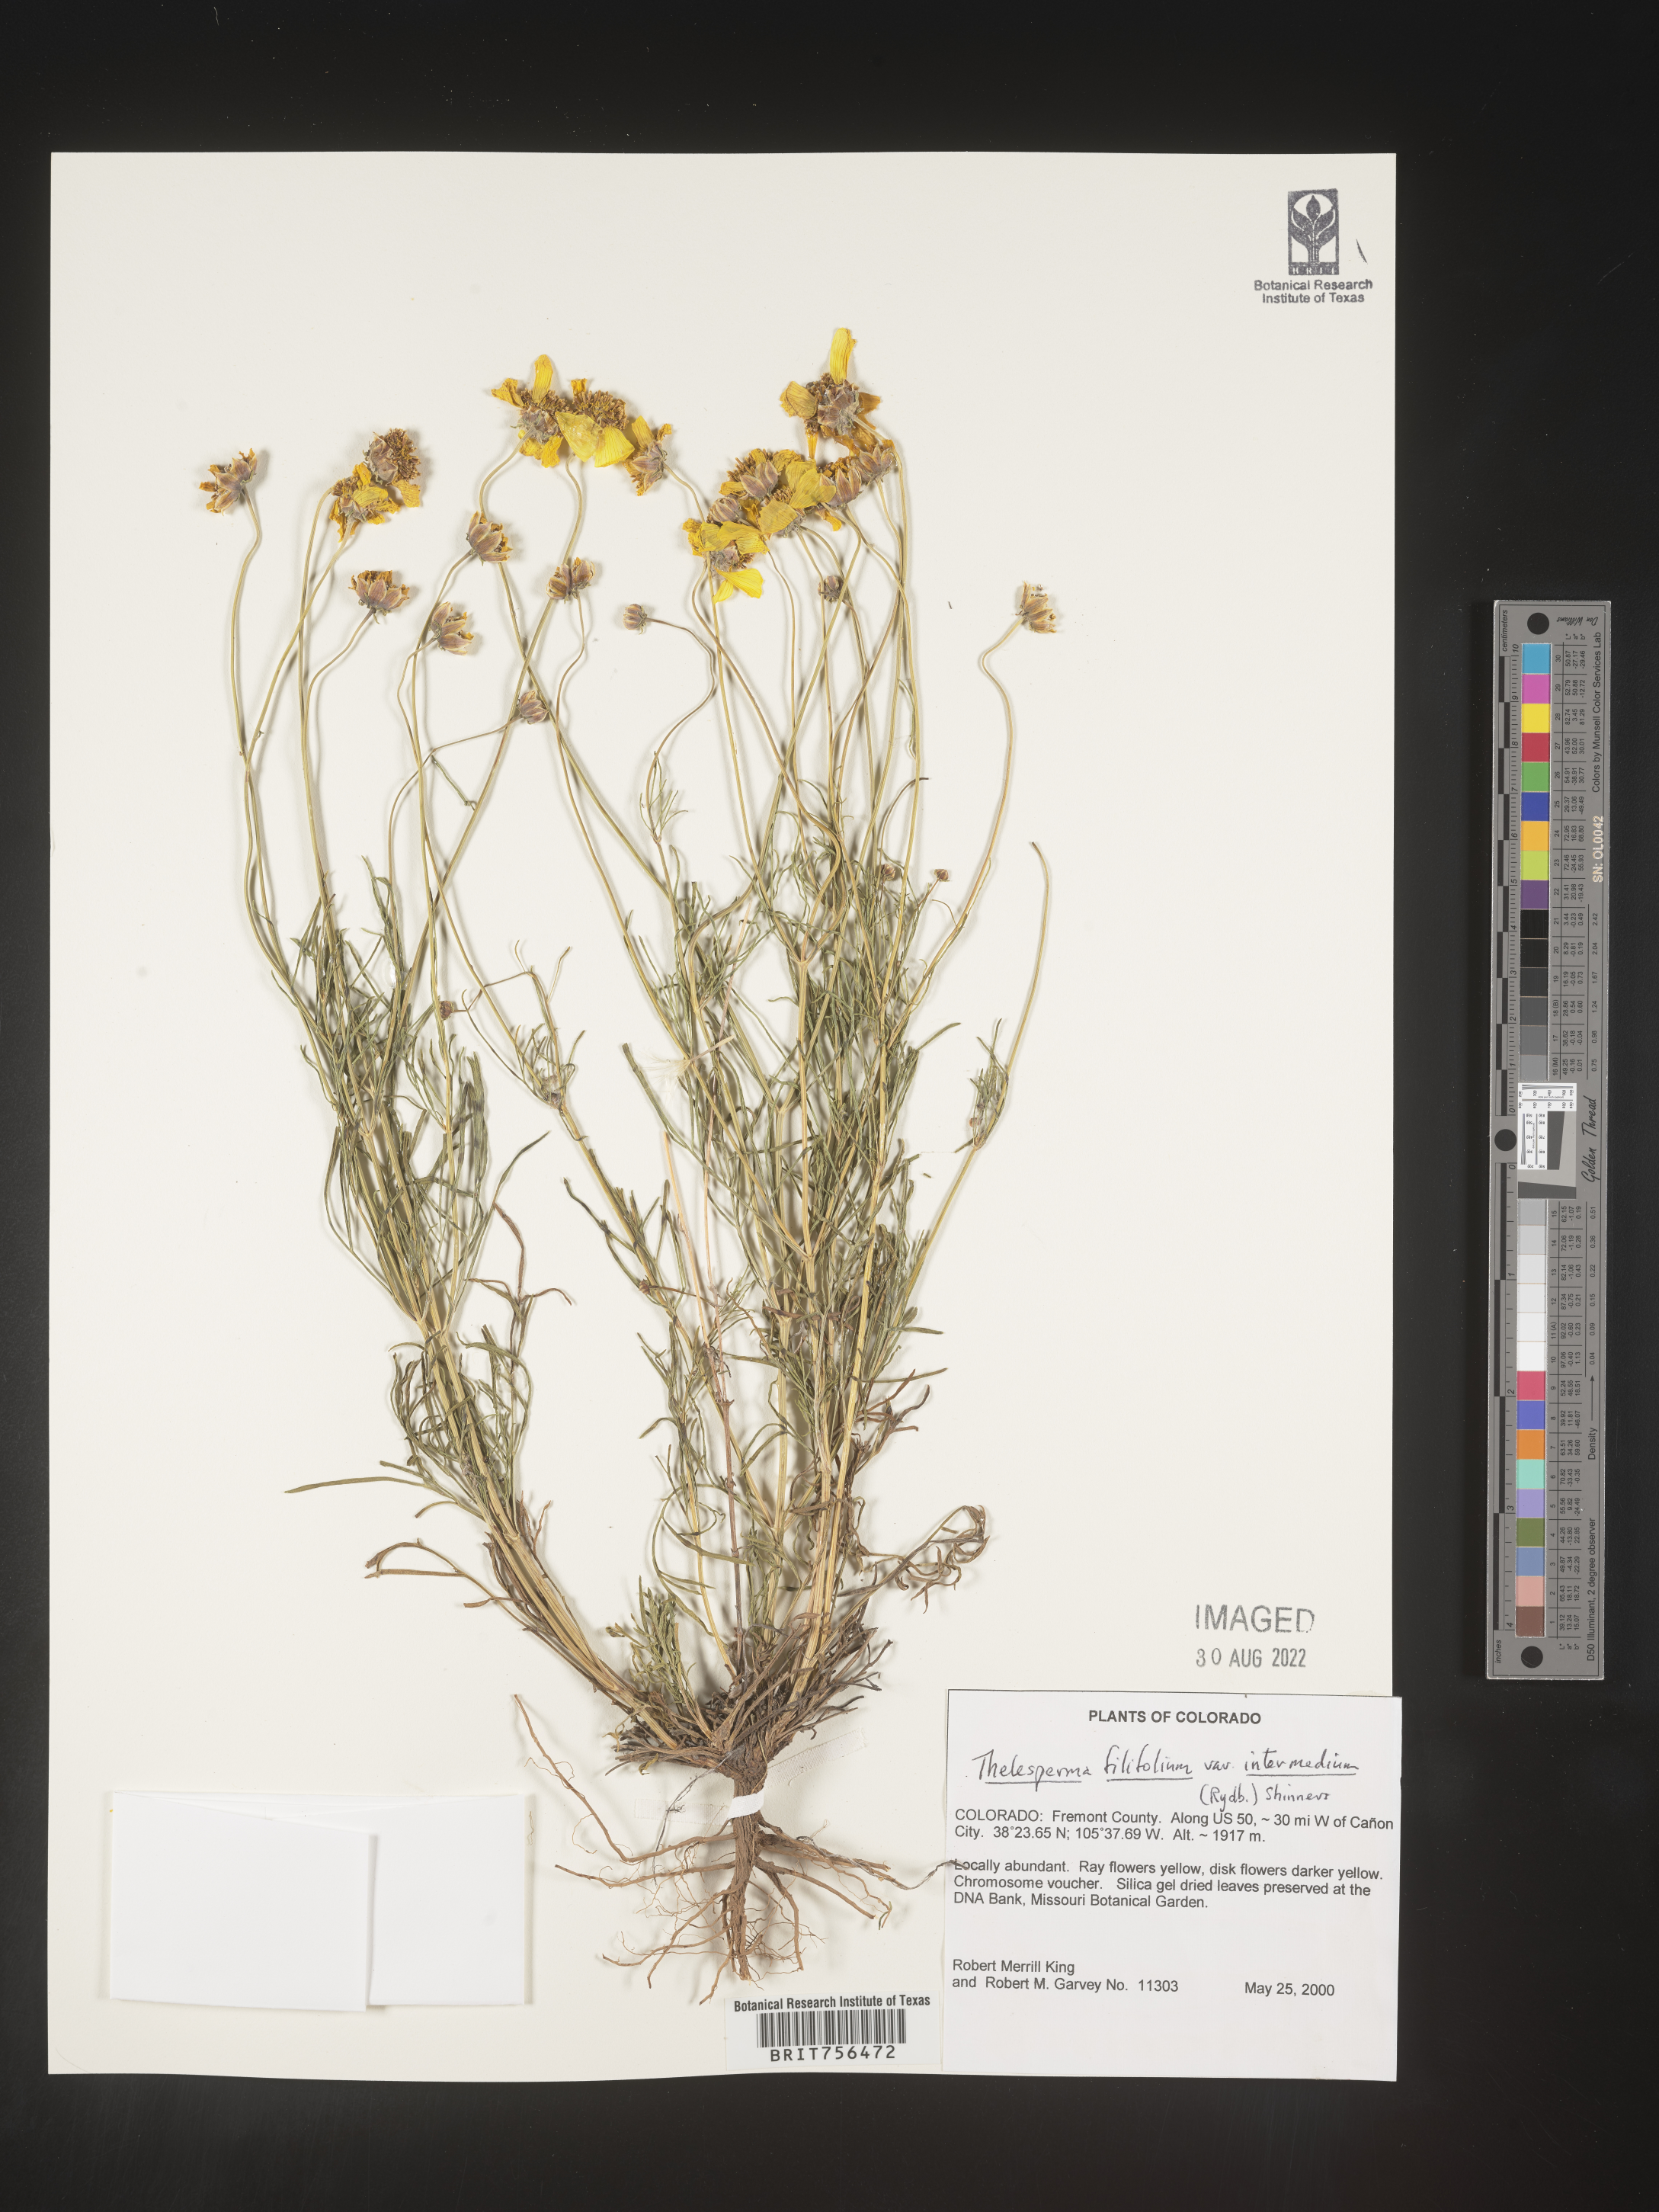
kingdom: Plantae
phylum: Tracheophyta
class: Magnoliopsida
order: Asterales
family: Asteraceae
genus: Thelesperma
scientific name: Thelesperma filifolium
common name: Stiff greenthread
